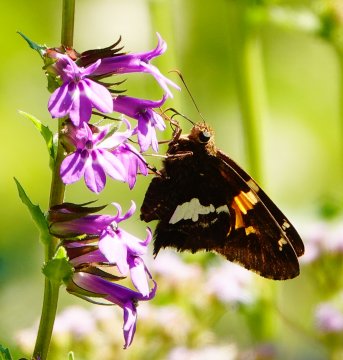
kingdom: Animalia
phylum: Arthropoda
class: Insecta
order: Lepidoptera
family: Hesperiidae
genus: Epargyreus
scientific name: Epargyreus clarus
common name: Silver-spotted Skipper
